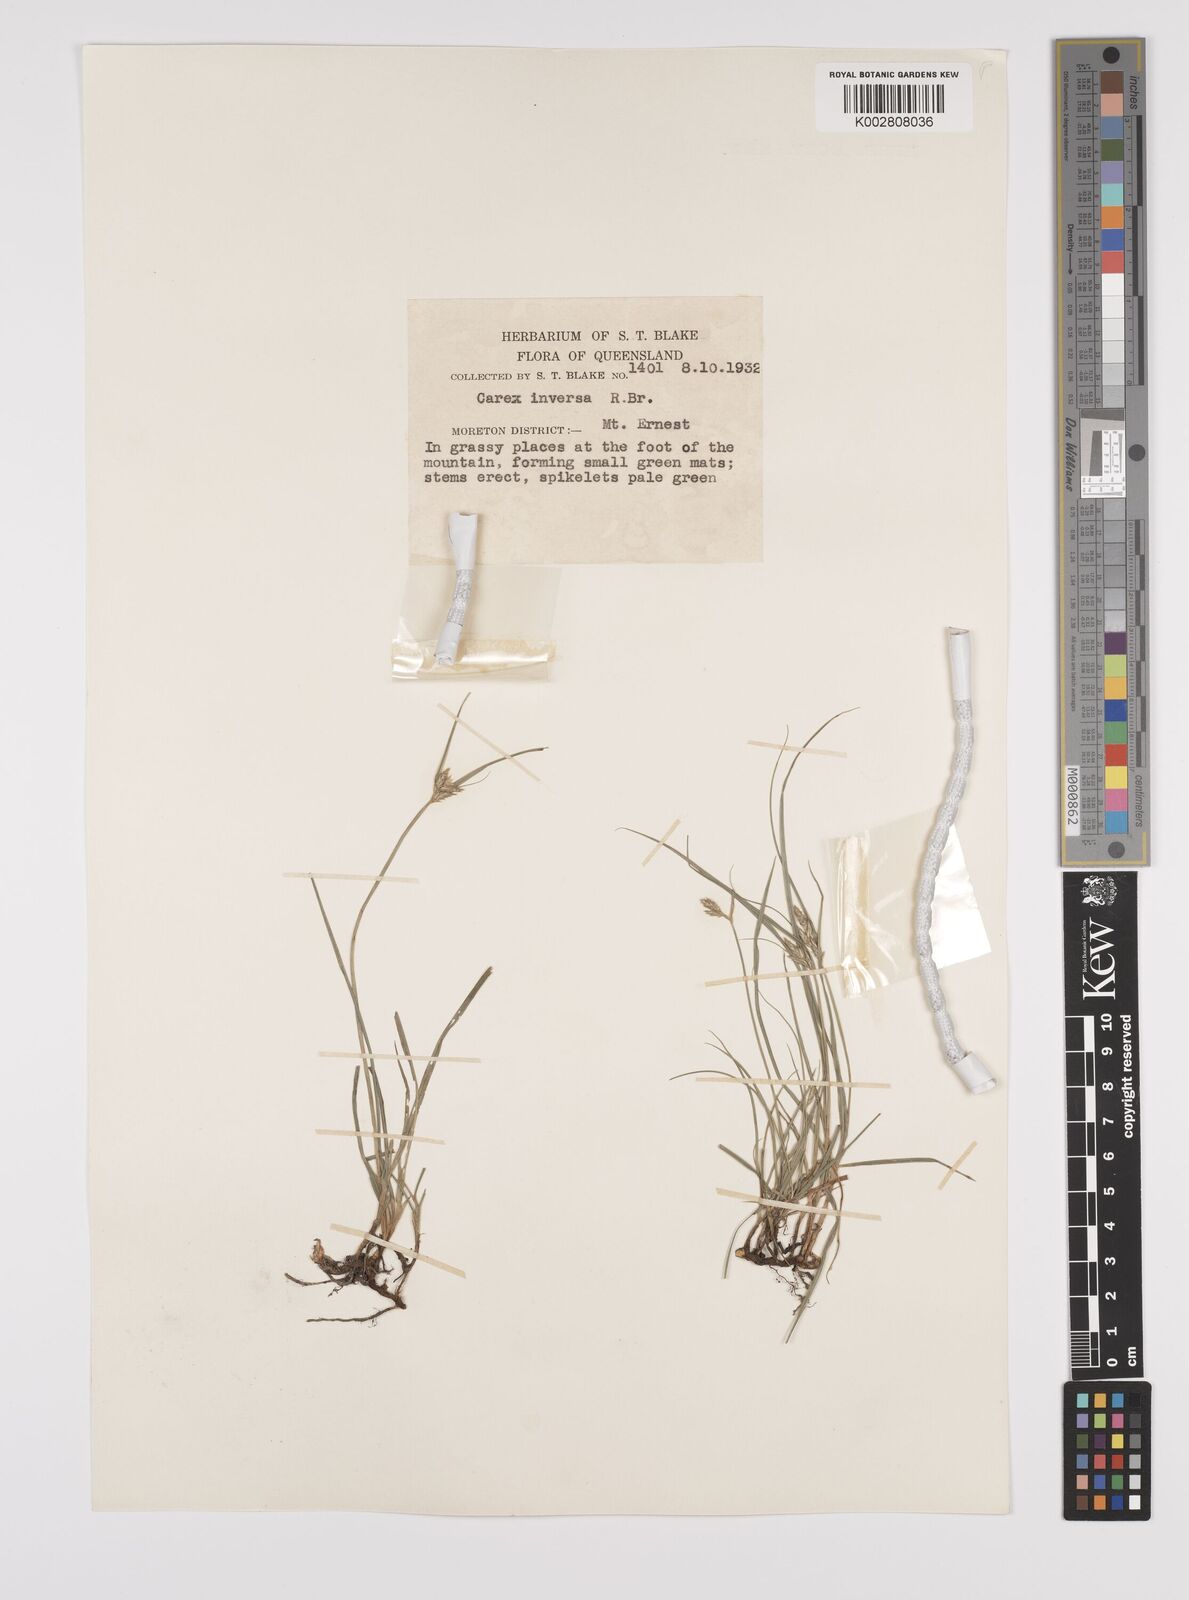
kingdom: Plantae
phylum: Tracheophyta
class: Liliopsida
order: Poales
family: Cyperaceae
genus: Carex
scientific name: Carex inversa
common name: Knob sedge
